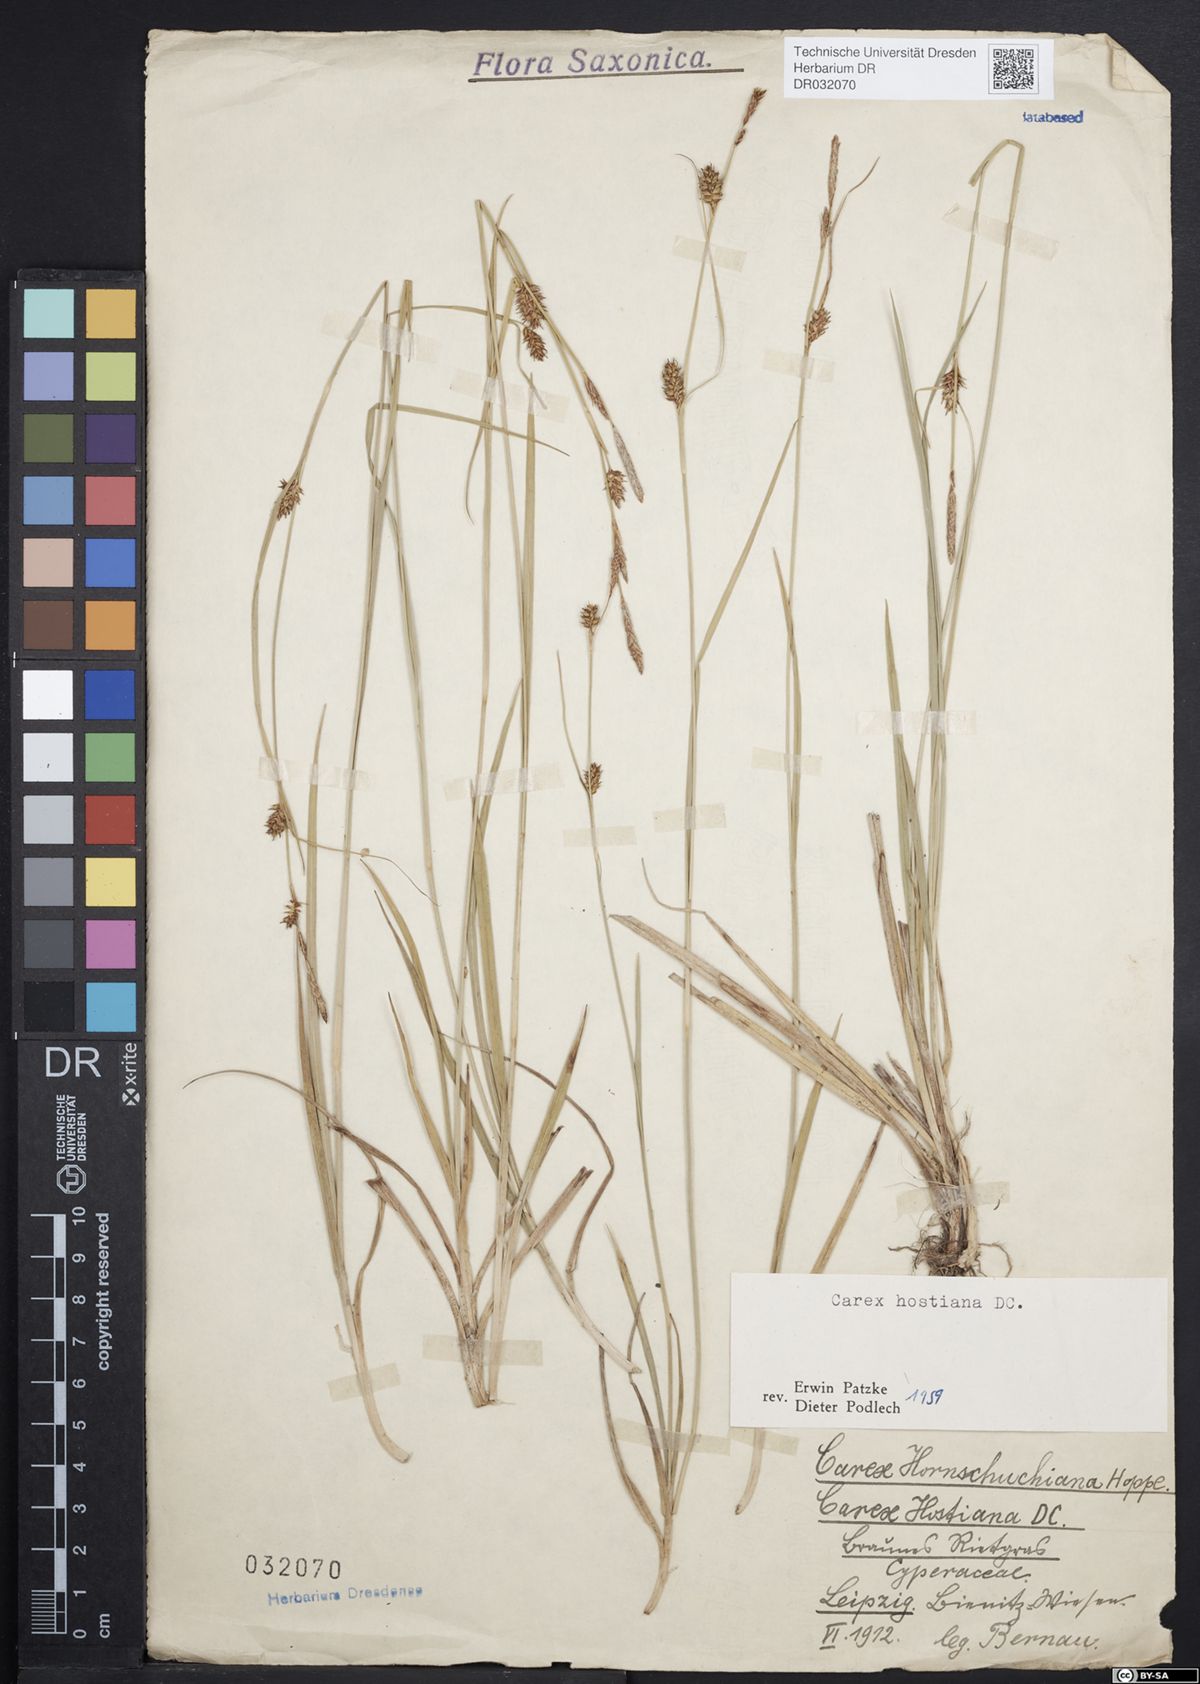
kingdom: Plantae
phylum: Tracheophyta
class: Liliopsida
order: Poales
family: Cyperaceae
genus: Carex
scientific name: Carex hostiana
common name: Tawny sedge
